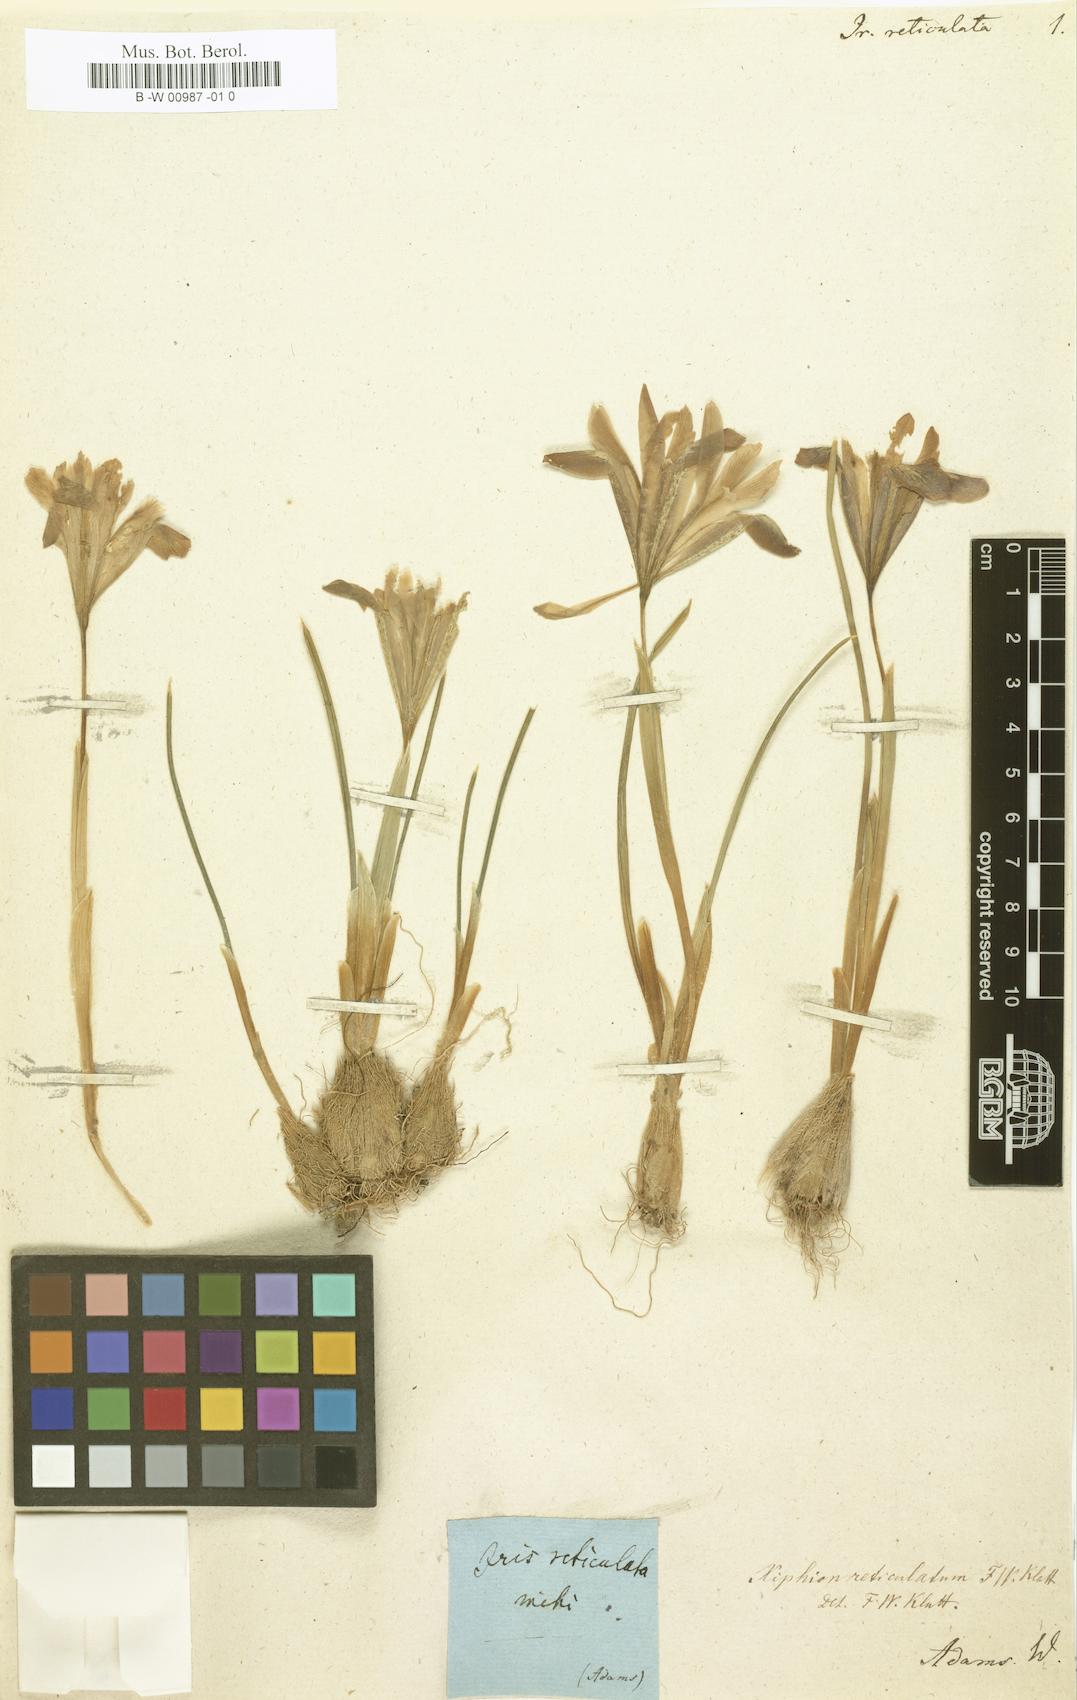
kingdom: Plantae
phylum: Tracheophyta
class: Liliopsida
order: Asparagales
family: Iridaceae
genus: Iris
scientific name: Iris reticulata
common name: Netted iris
